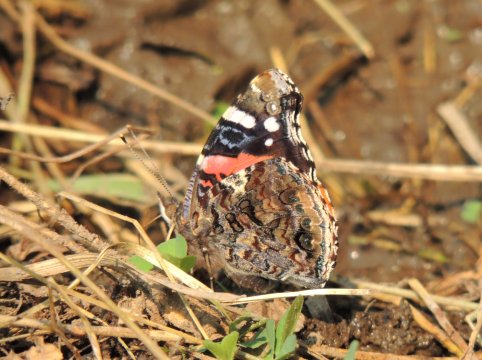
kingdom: Animalia
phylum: Arthropoda
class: Insecta
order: Lepidoptera
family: Nymphalidae
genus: Vanessa
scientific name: Vanessa atalanta
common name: Red Admiral
